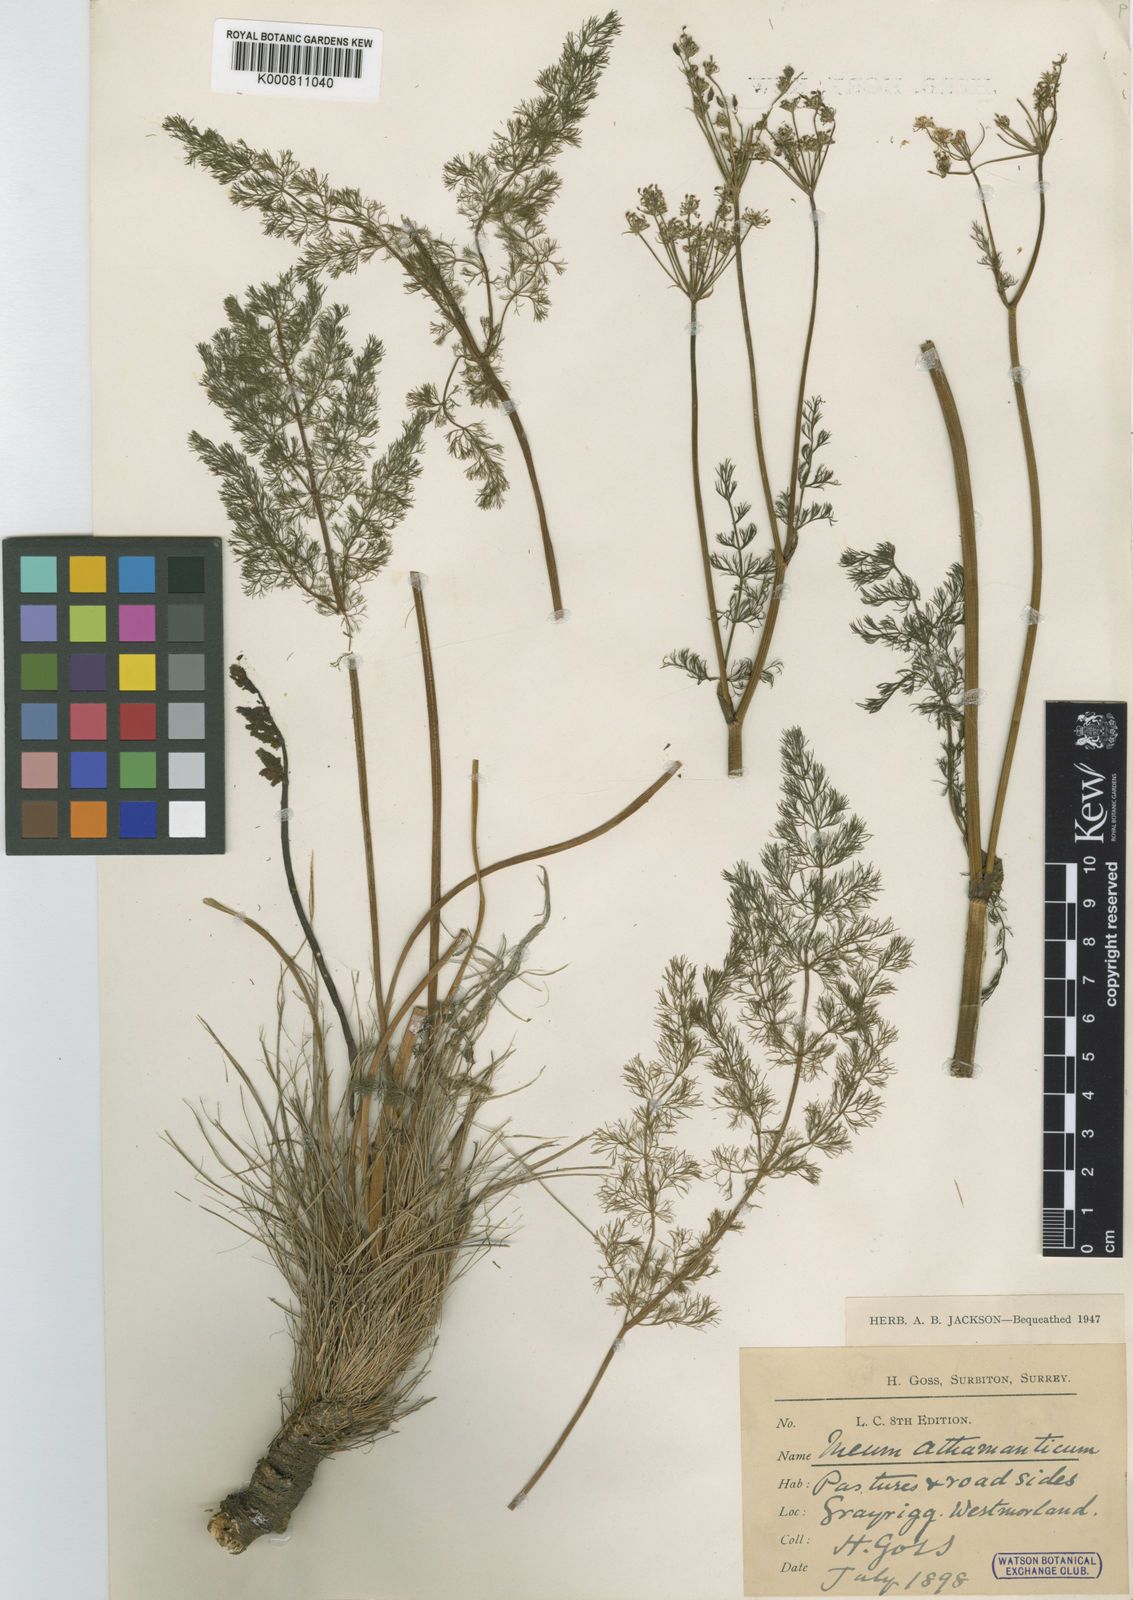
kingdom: Plantae
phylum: Tracheophyta
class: Magnoliopsida
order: Apiales
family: Apiaceae
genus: Meum
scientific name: Meum athamanticum
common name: Spignel
